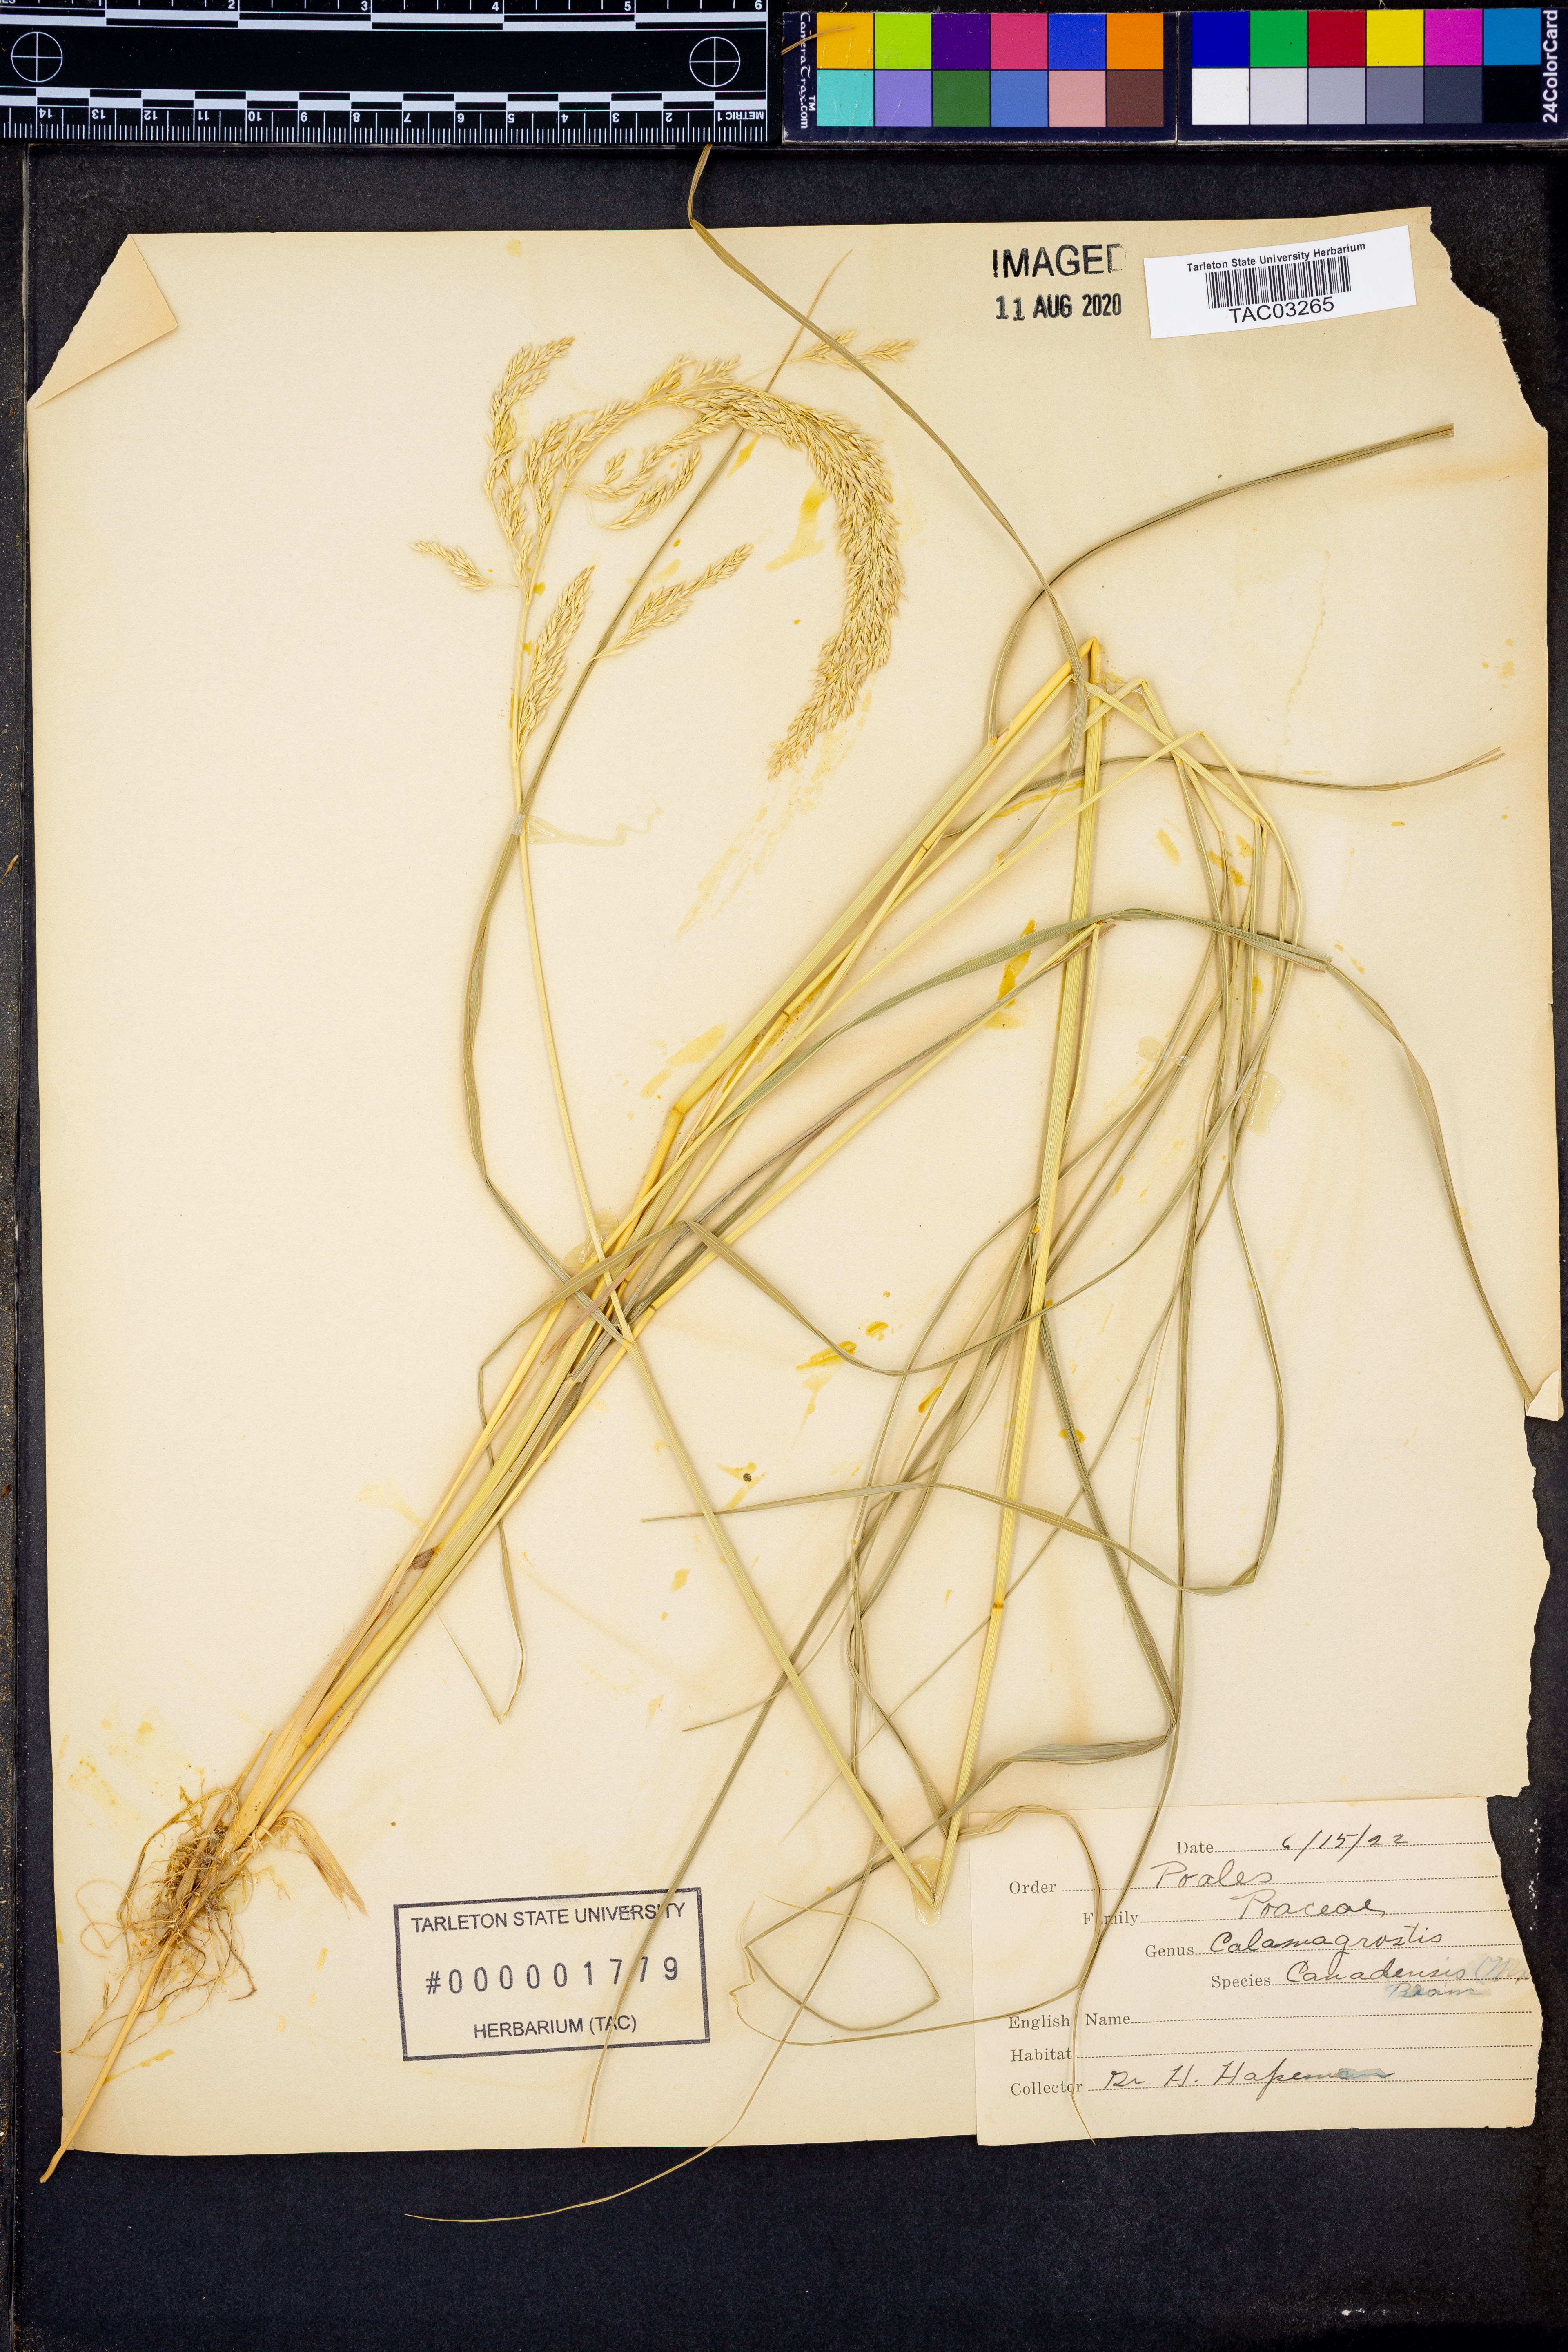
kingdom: Plantae
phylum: Tracheophyta
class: Liliopsida
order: Poales
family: Poaceae
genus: Calamagrostis
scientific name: Calamagrostis canadensis
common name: Canada bluejoint
